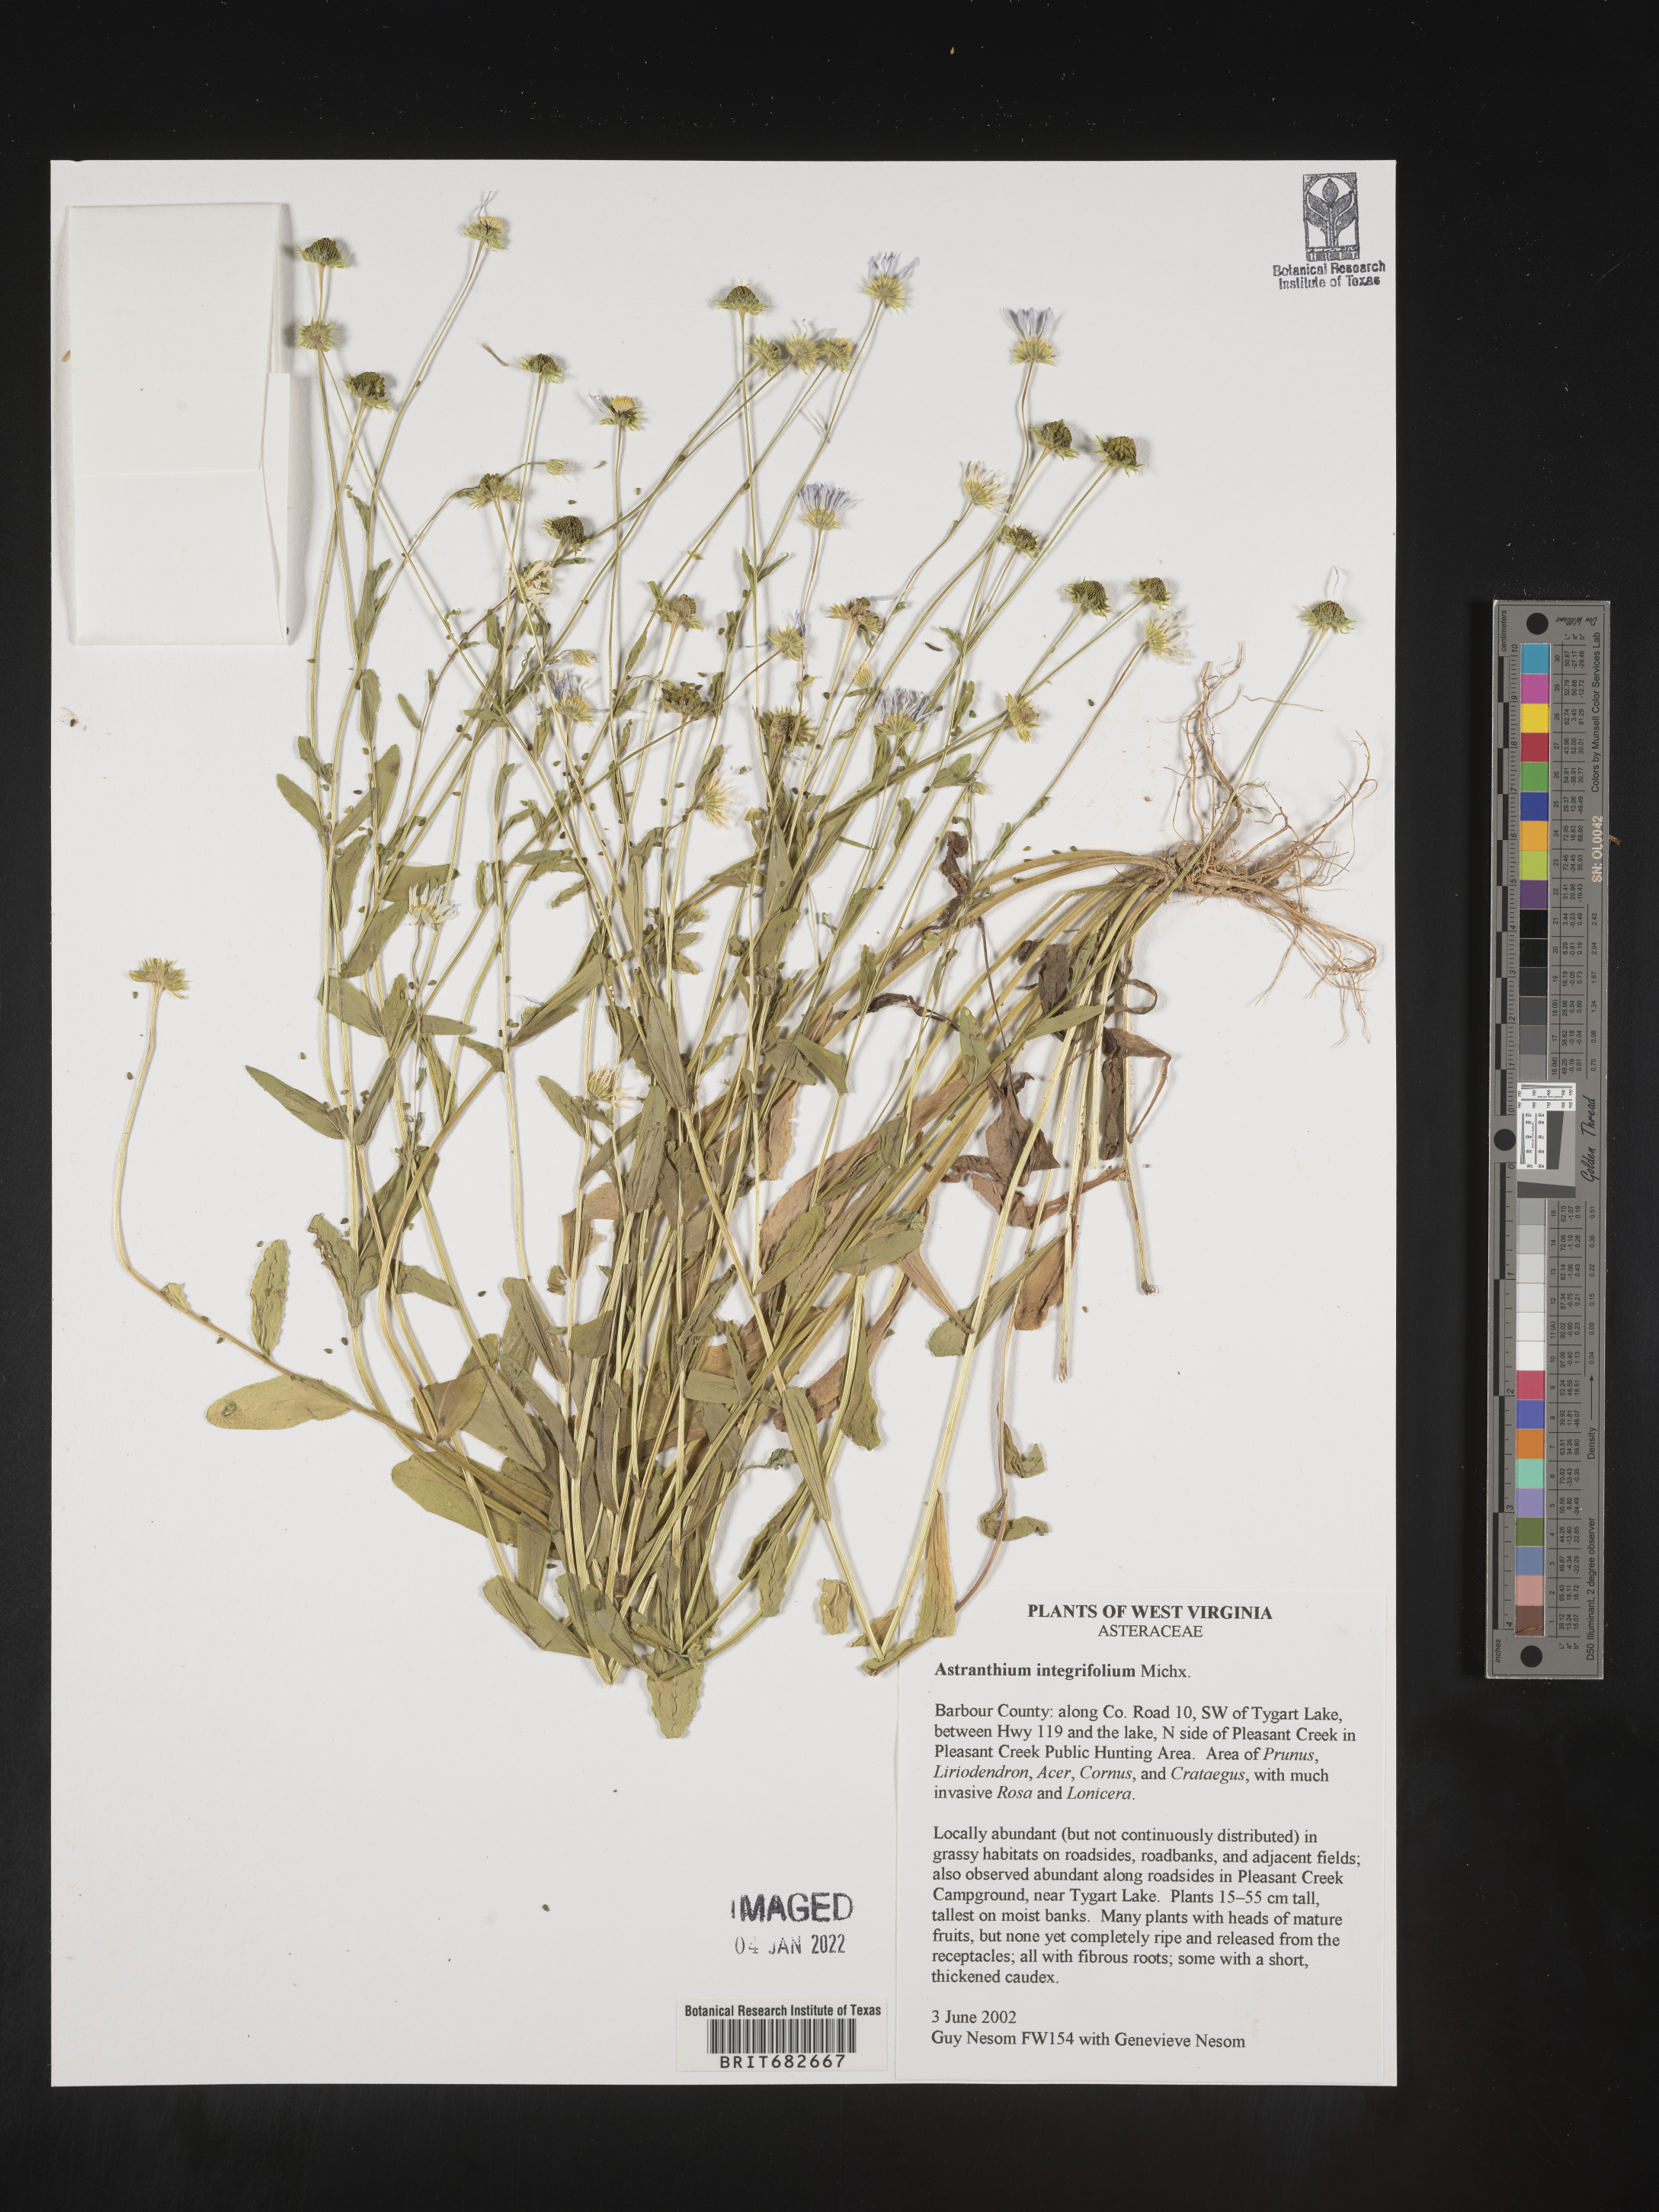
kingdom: Plantae
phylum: Tracheophyta
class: Magnoliopsida
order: Asterales
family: Asteraceae
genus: Astranthium
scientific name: Astranthium
